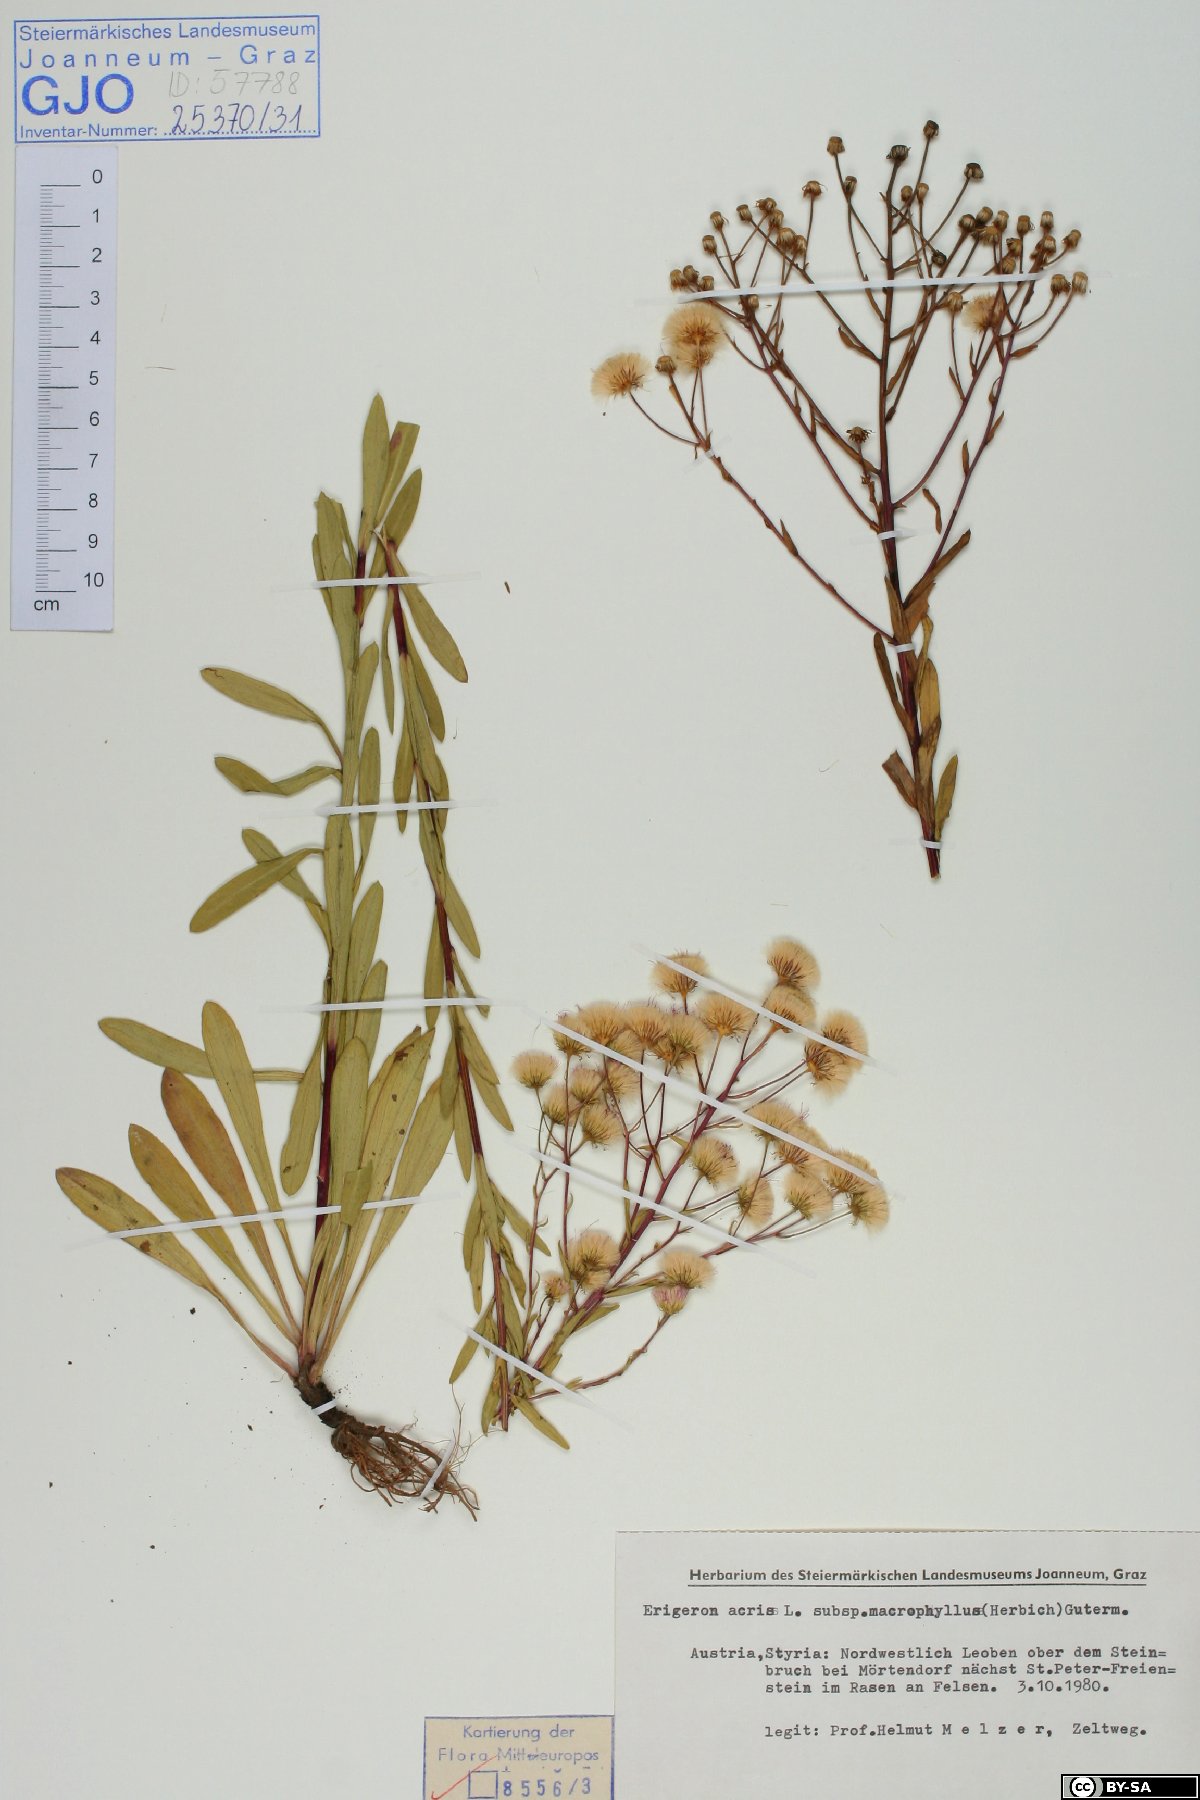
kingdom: Plantae
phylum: Tracheophyta
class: Magnoliopsida
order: Asterales
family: Asteraceae
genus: Erigeron
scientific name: Erigeron macrophyllus
